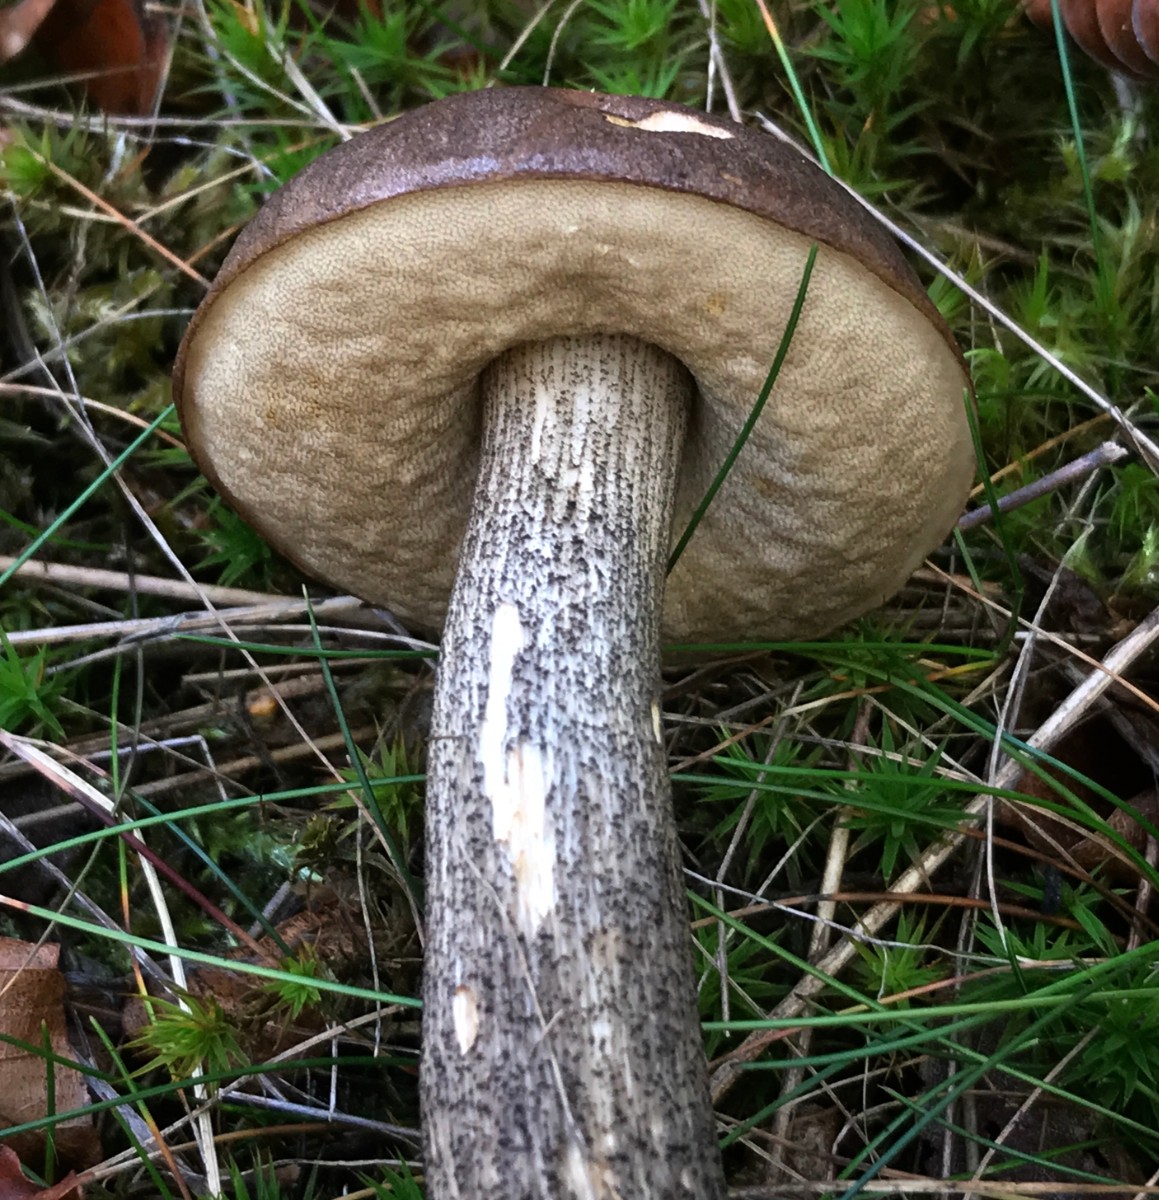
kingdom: Fungi
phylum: Basidiomycota
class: Agaricomycetes
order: Boletales
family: Boletaceae
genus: Leccinum
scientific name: Leccinum melaneum
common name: mørk skælrørhat
